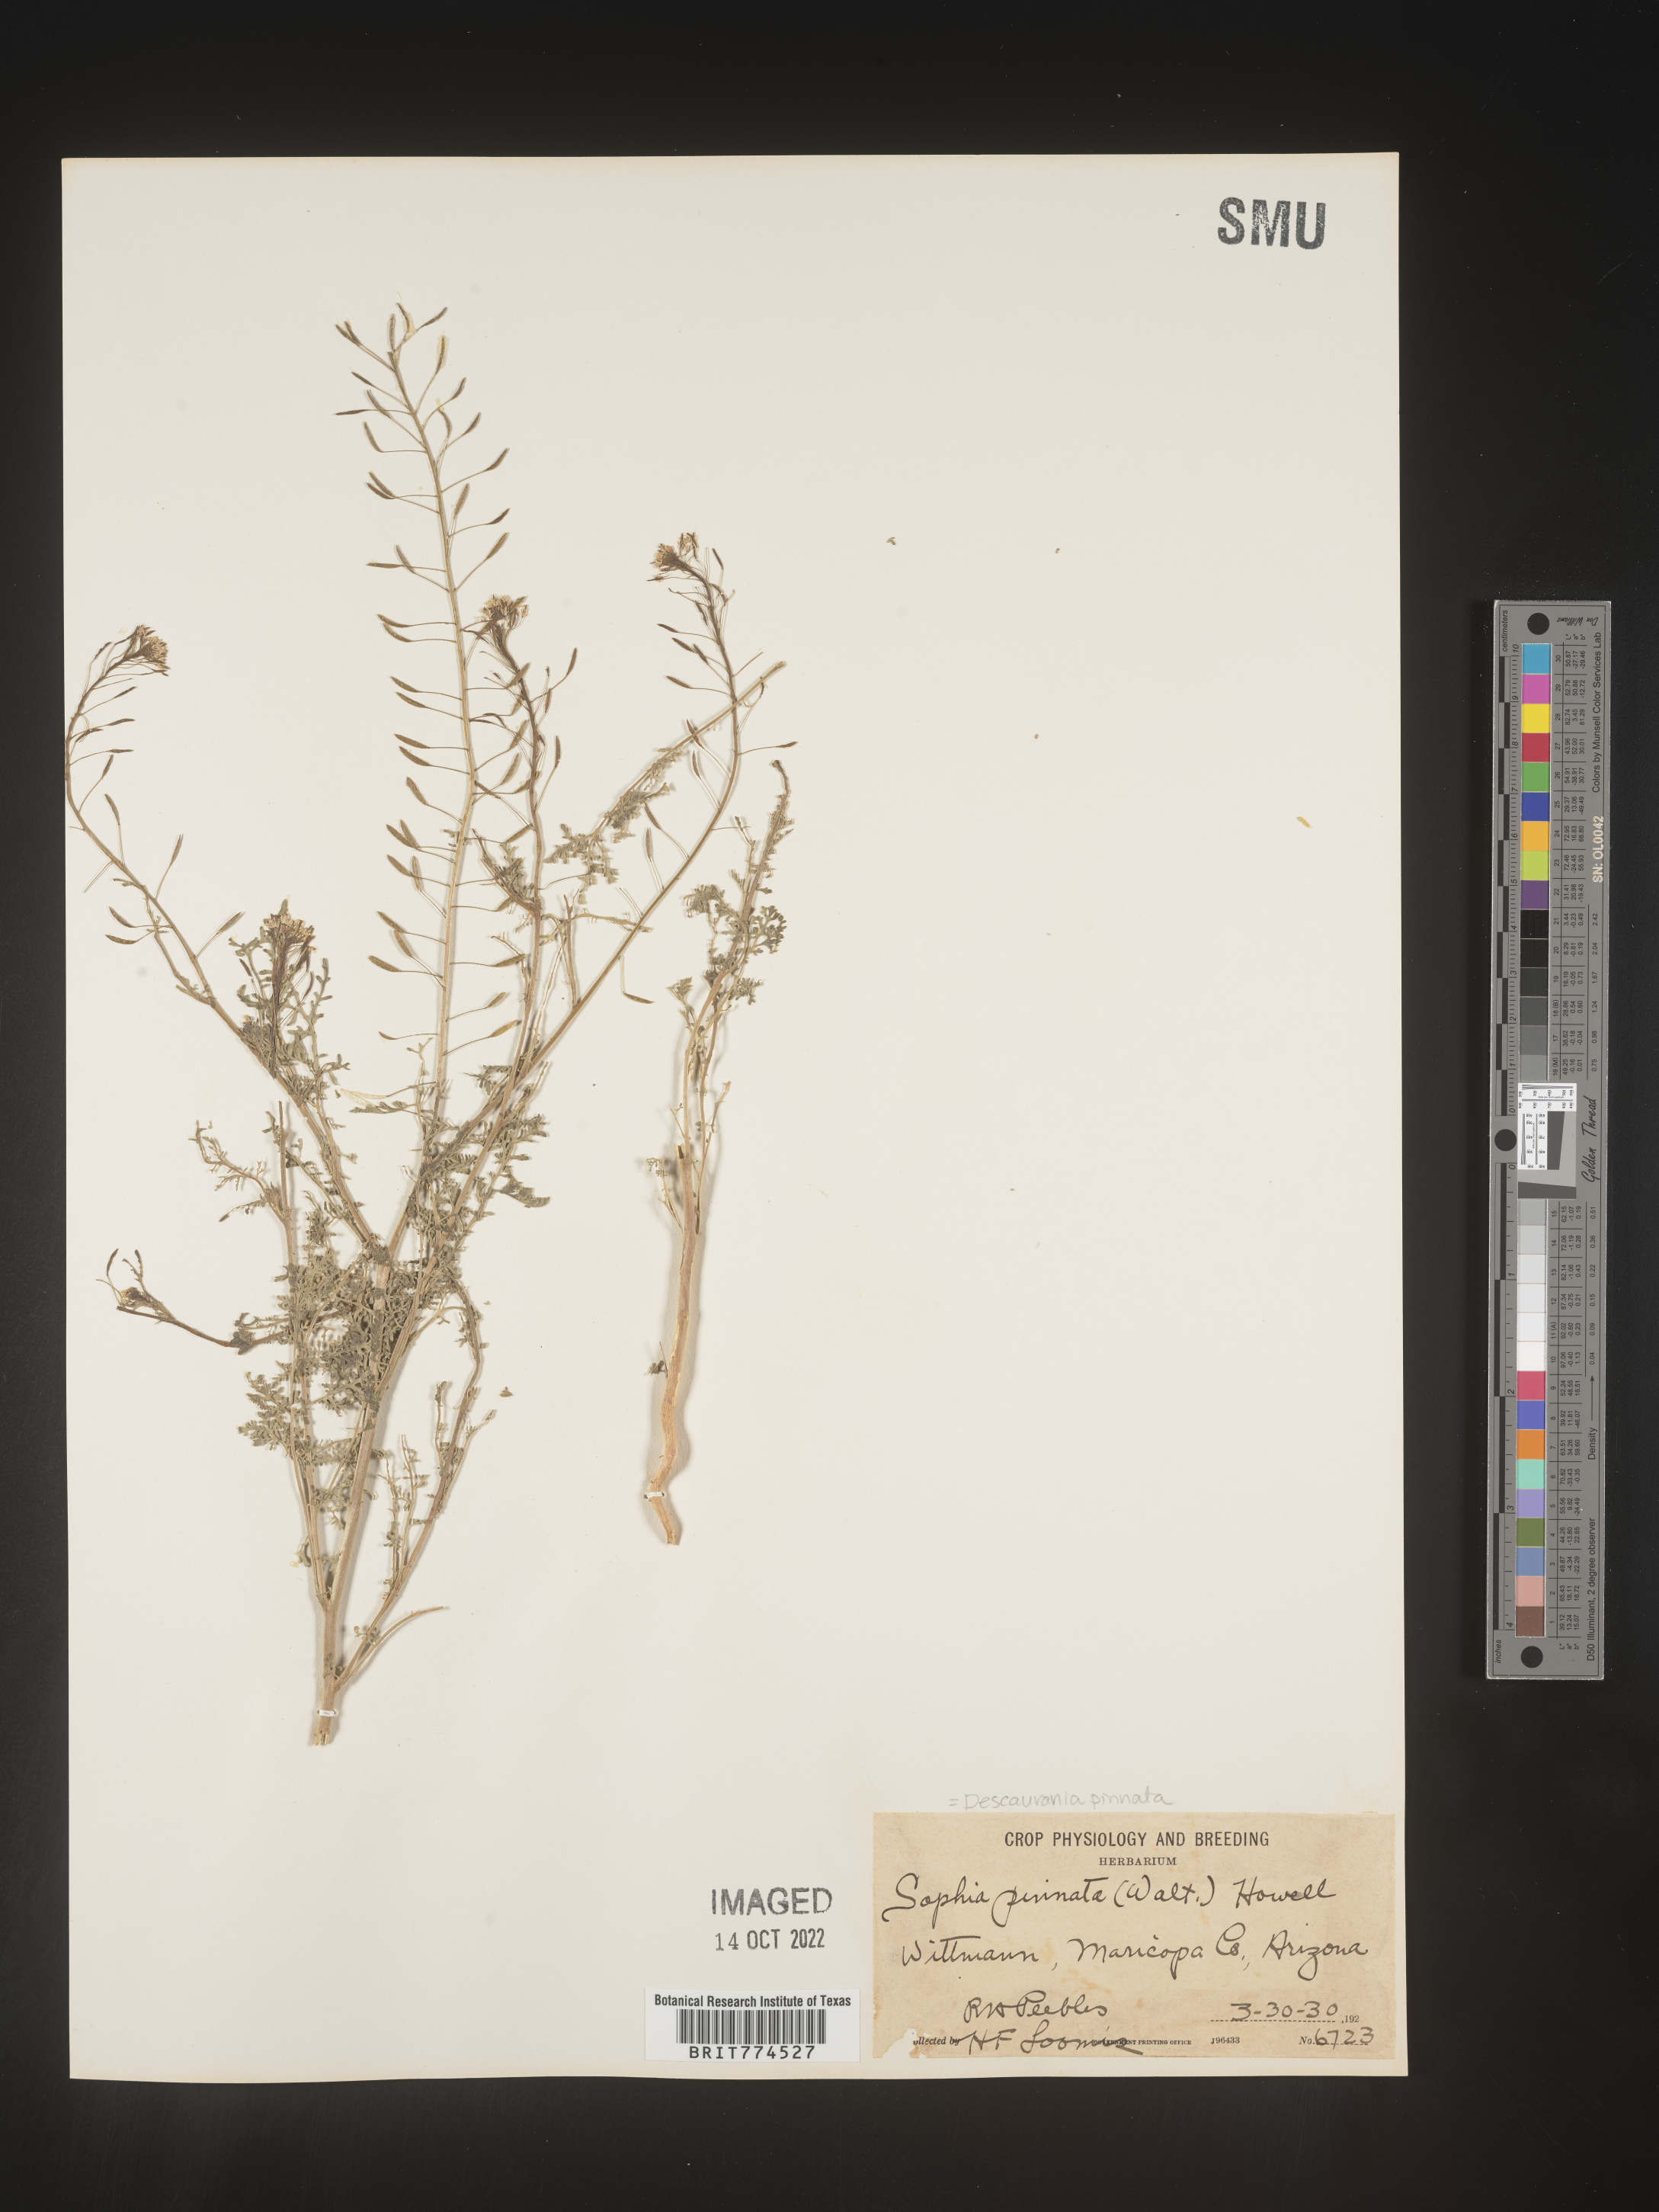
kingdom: Plantae
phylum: Tracheophyta
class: Magnoliopsida
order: Brassicales
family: Brassicaceae
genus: Descurainia
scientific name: Descurainia pinnata
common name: Western tansy mustard
